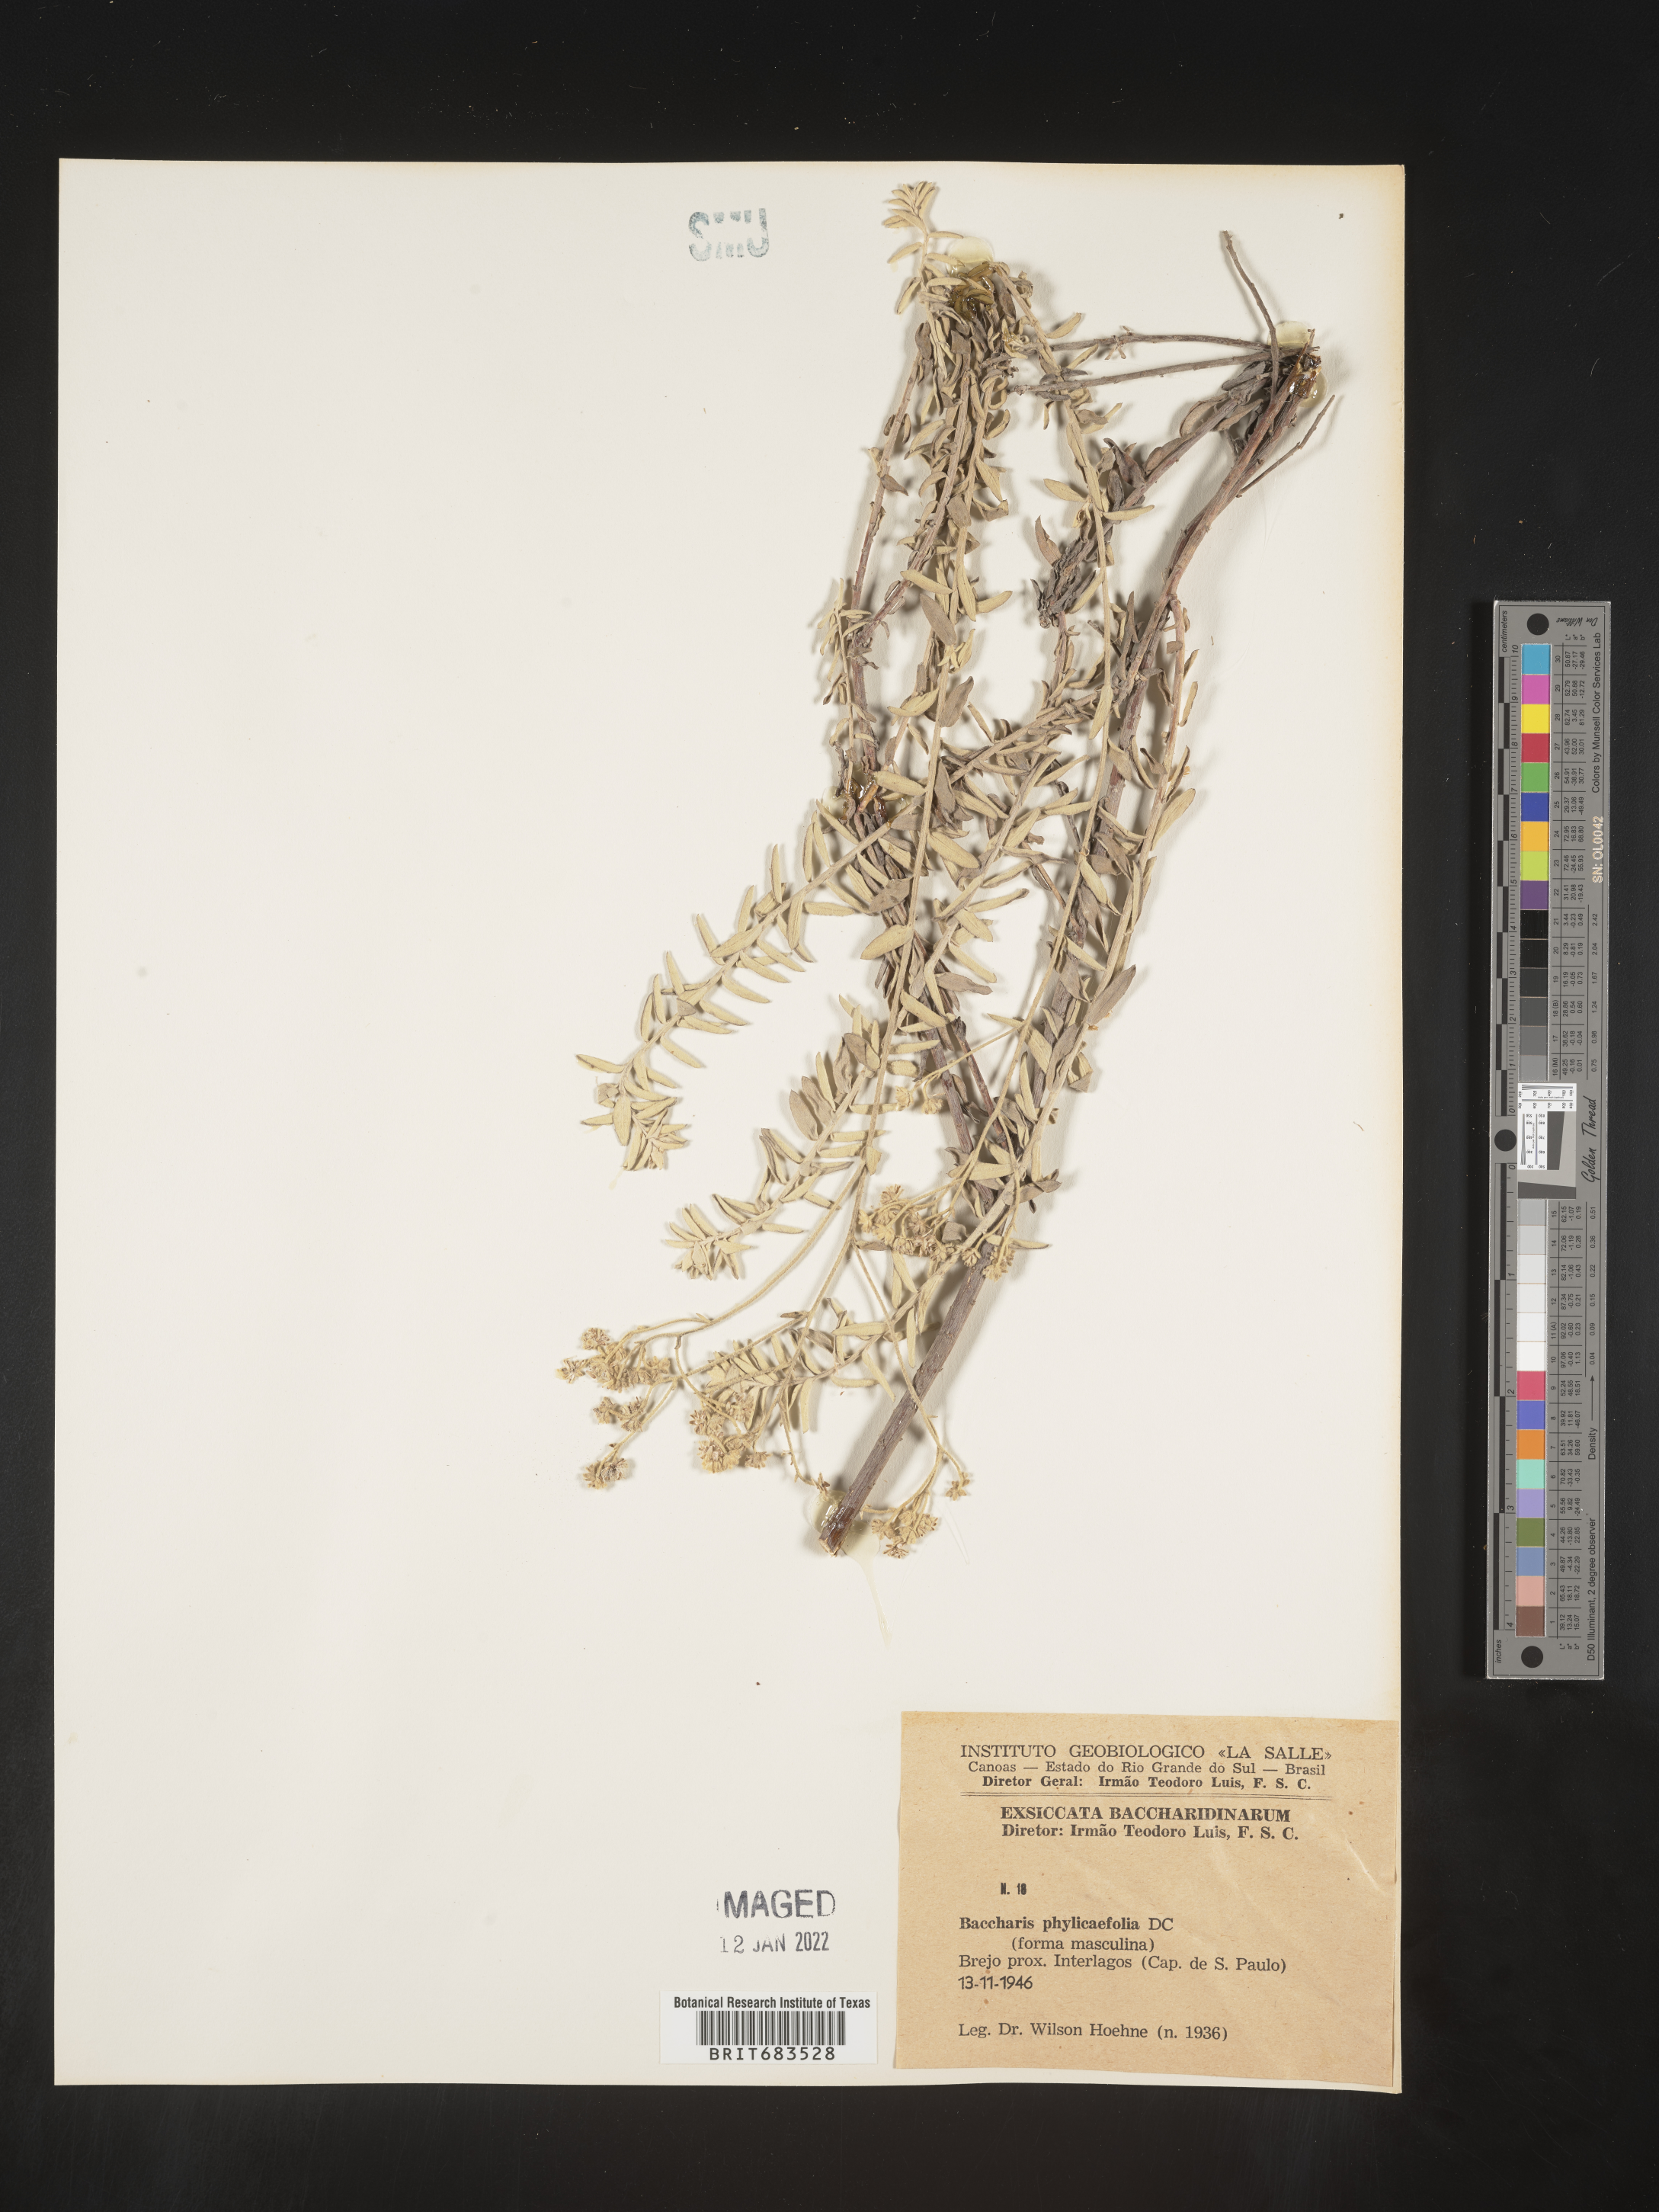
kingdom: Plantae
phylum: Tracheophyta
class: Magnoliopsida
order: Asterales
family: Asteraceae
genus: Baccharis
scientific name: Baccharis
